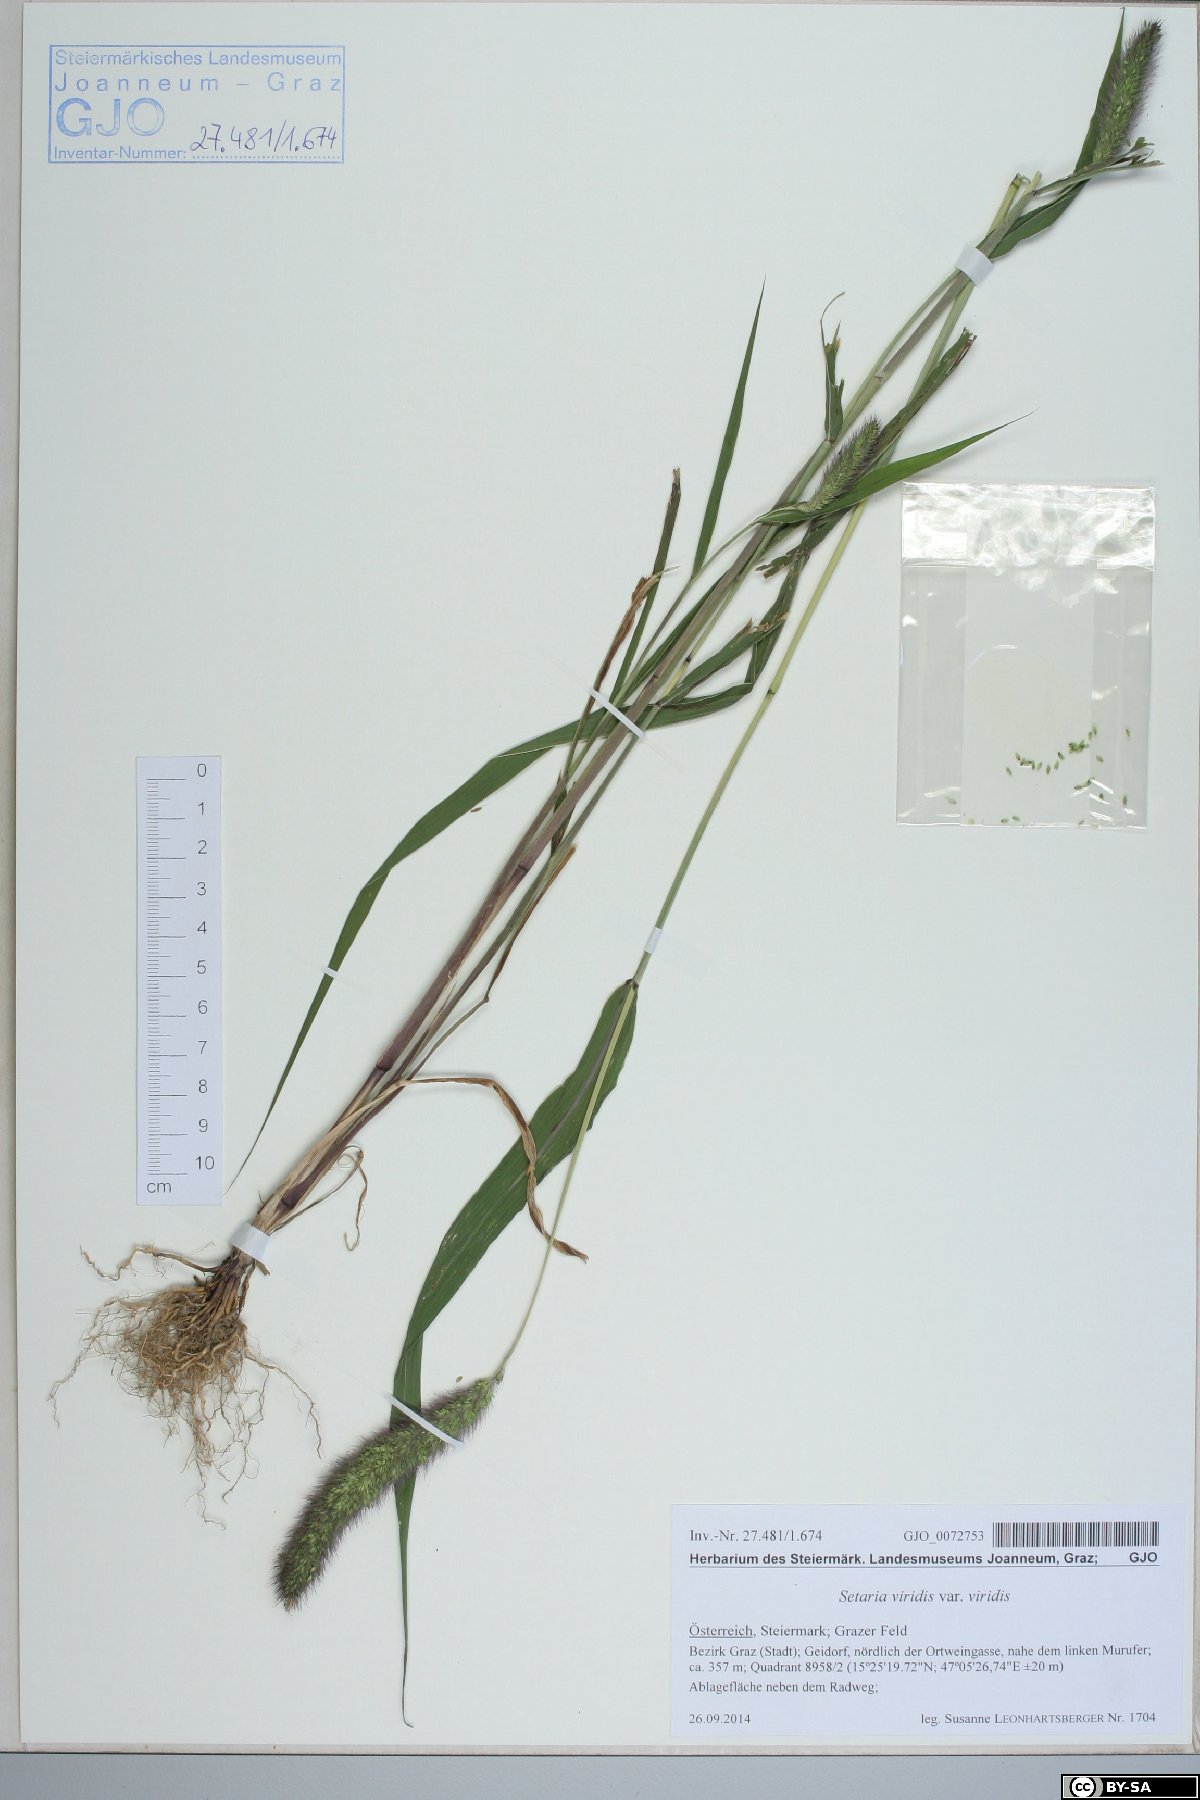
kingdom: Plantae
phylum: Tracheophyta
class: Liliopsida
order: Poales
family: Poaceae
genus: Setaria
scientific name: Setaria viridis
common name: Green bristlegrass
